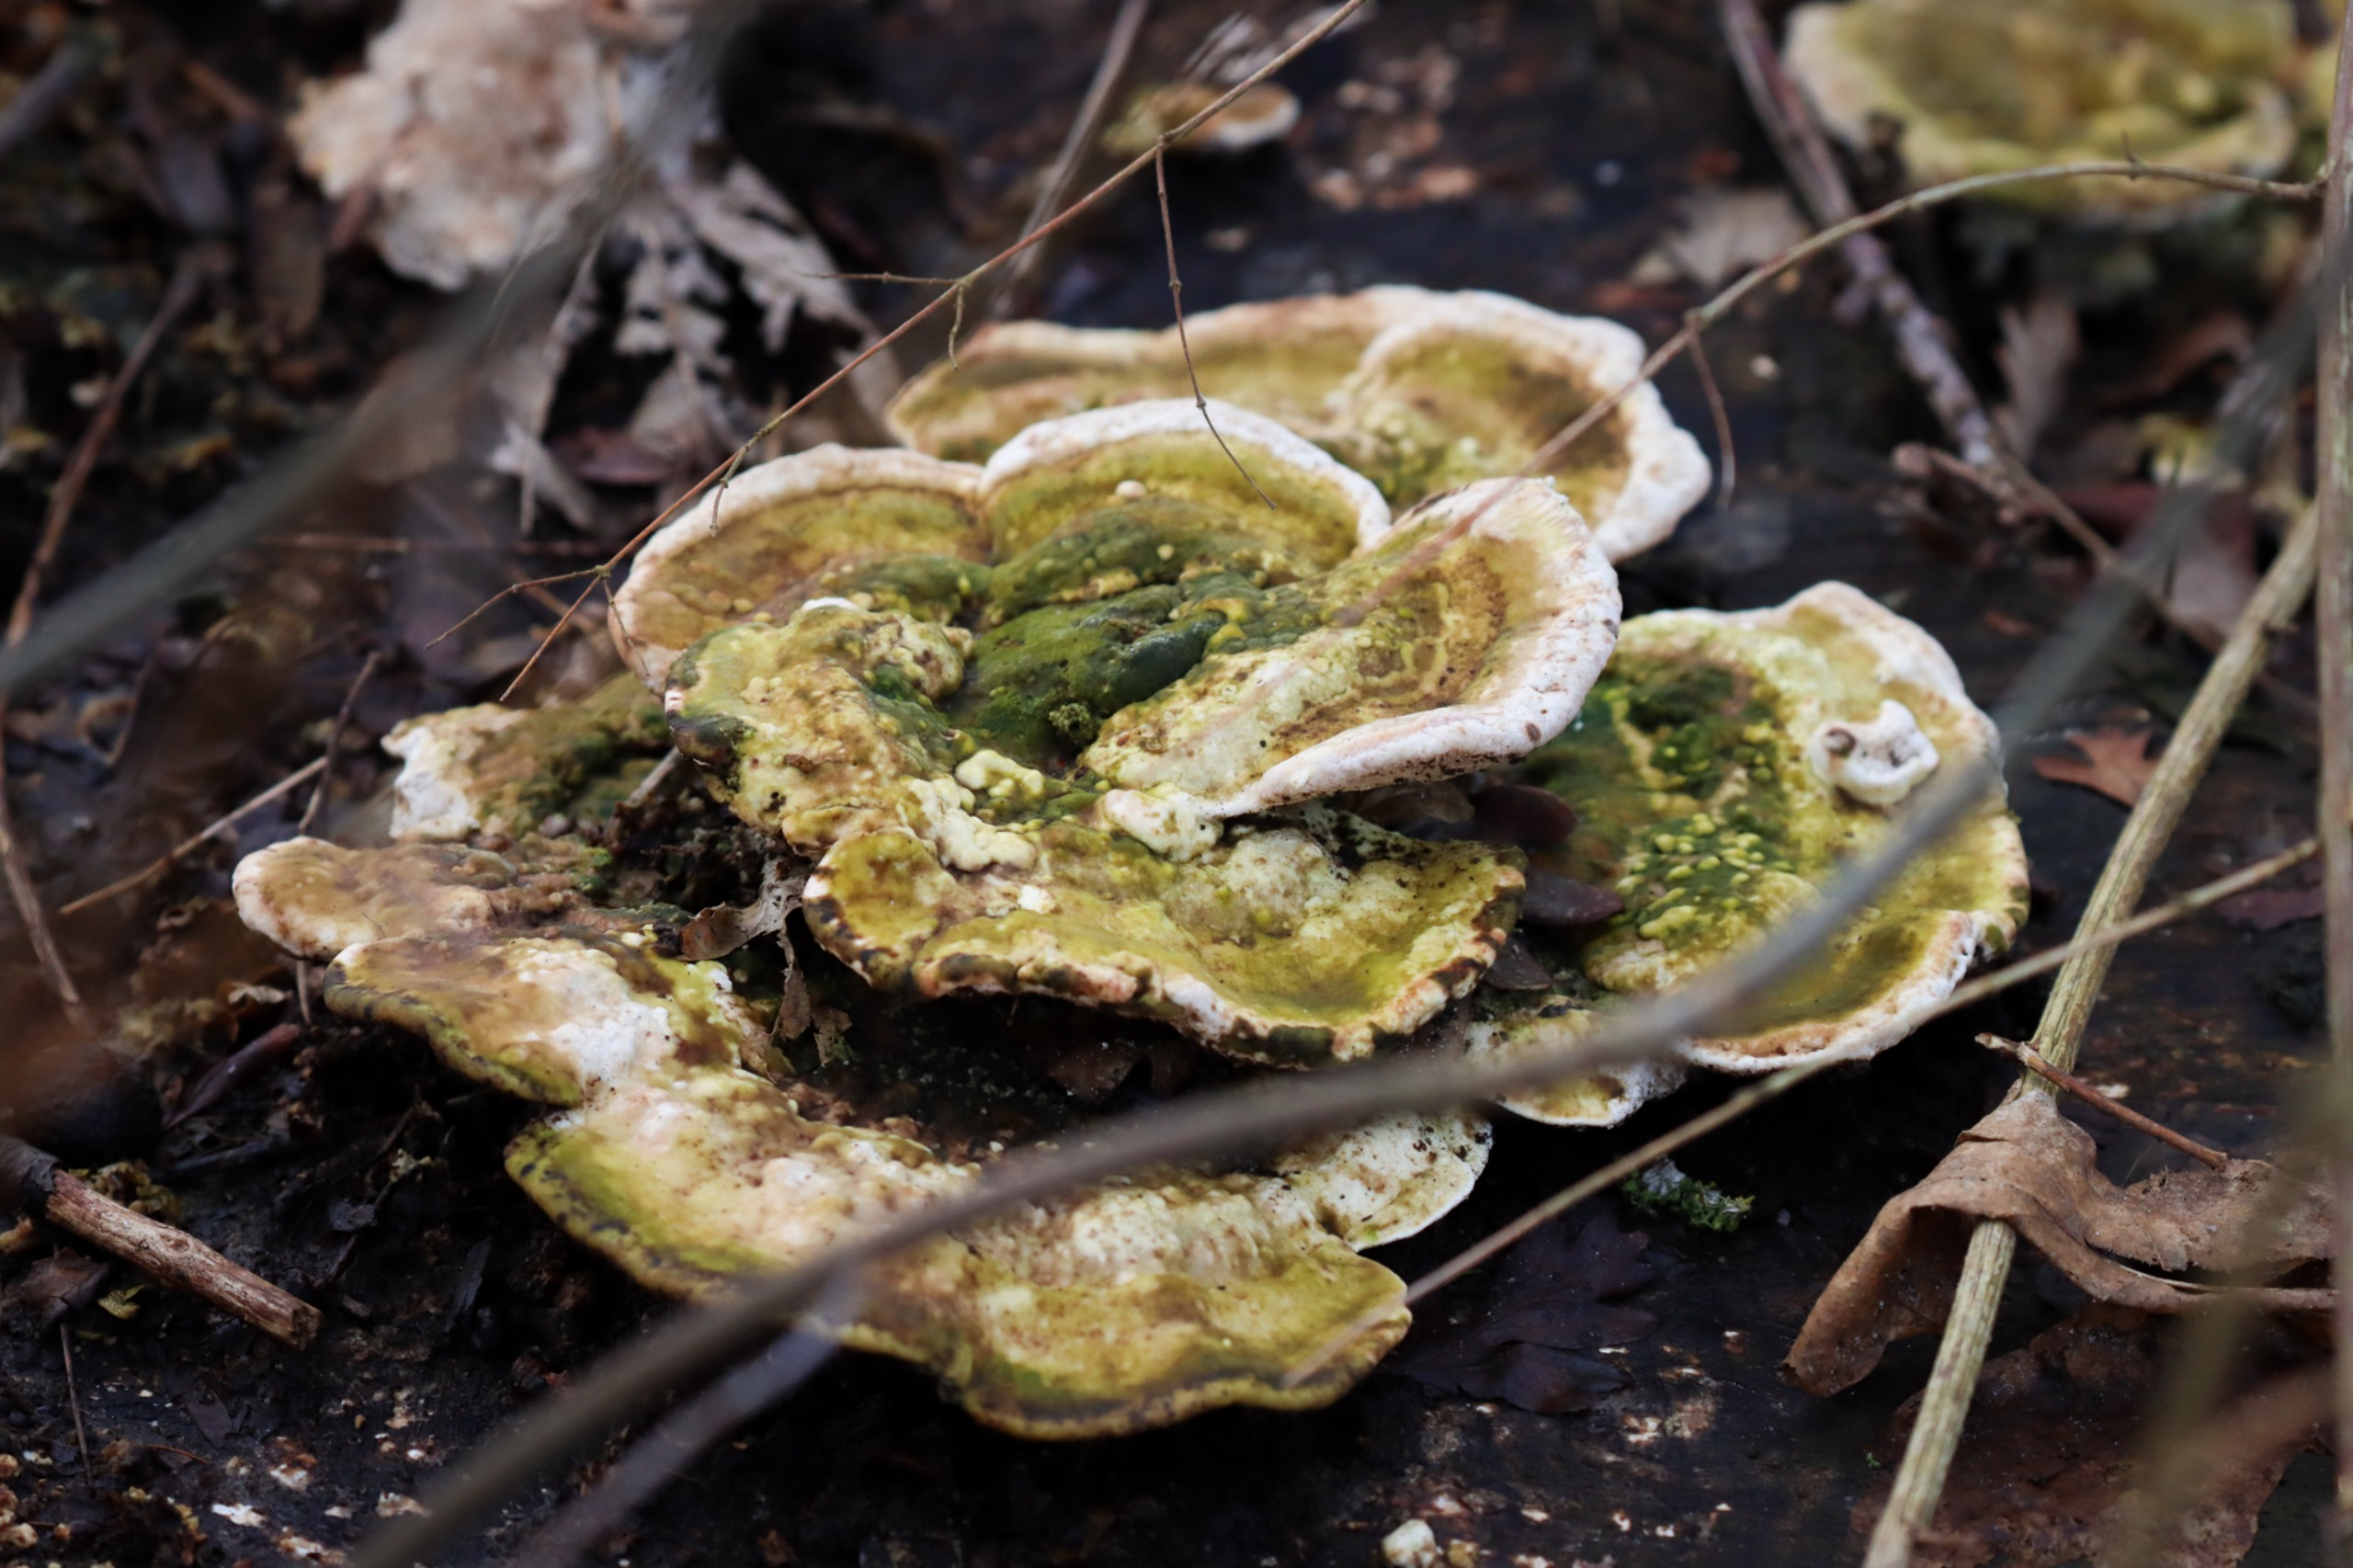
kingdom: Fungi
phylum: Basidiomycota
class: Agaricomycetes
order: Polyporales
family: Polyporaceae
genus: Trametes
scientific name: Trametes gibbosa
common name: Puklet læderporesvamp
